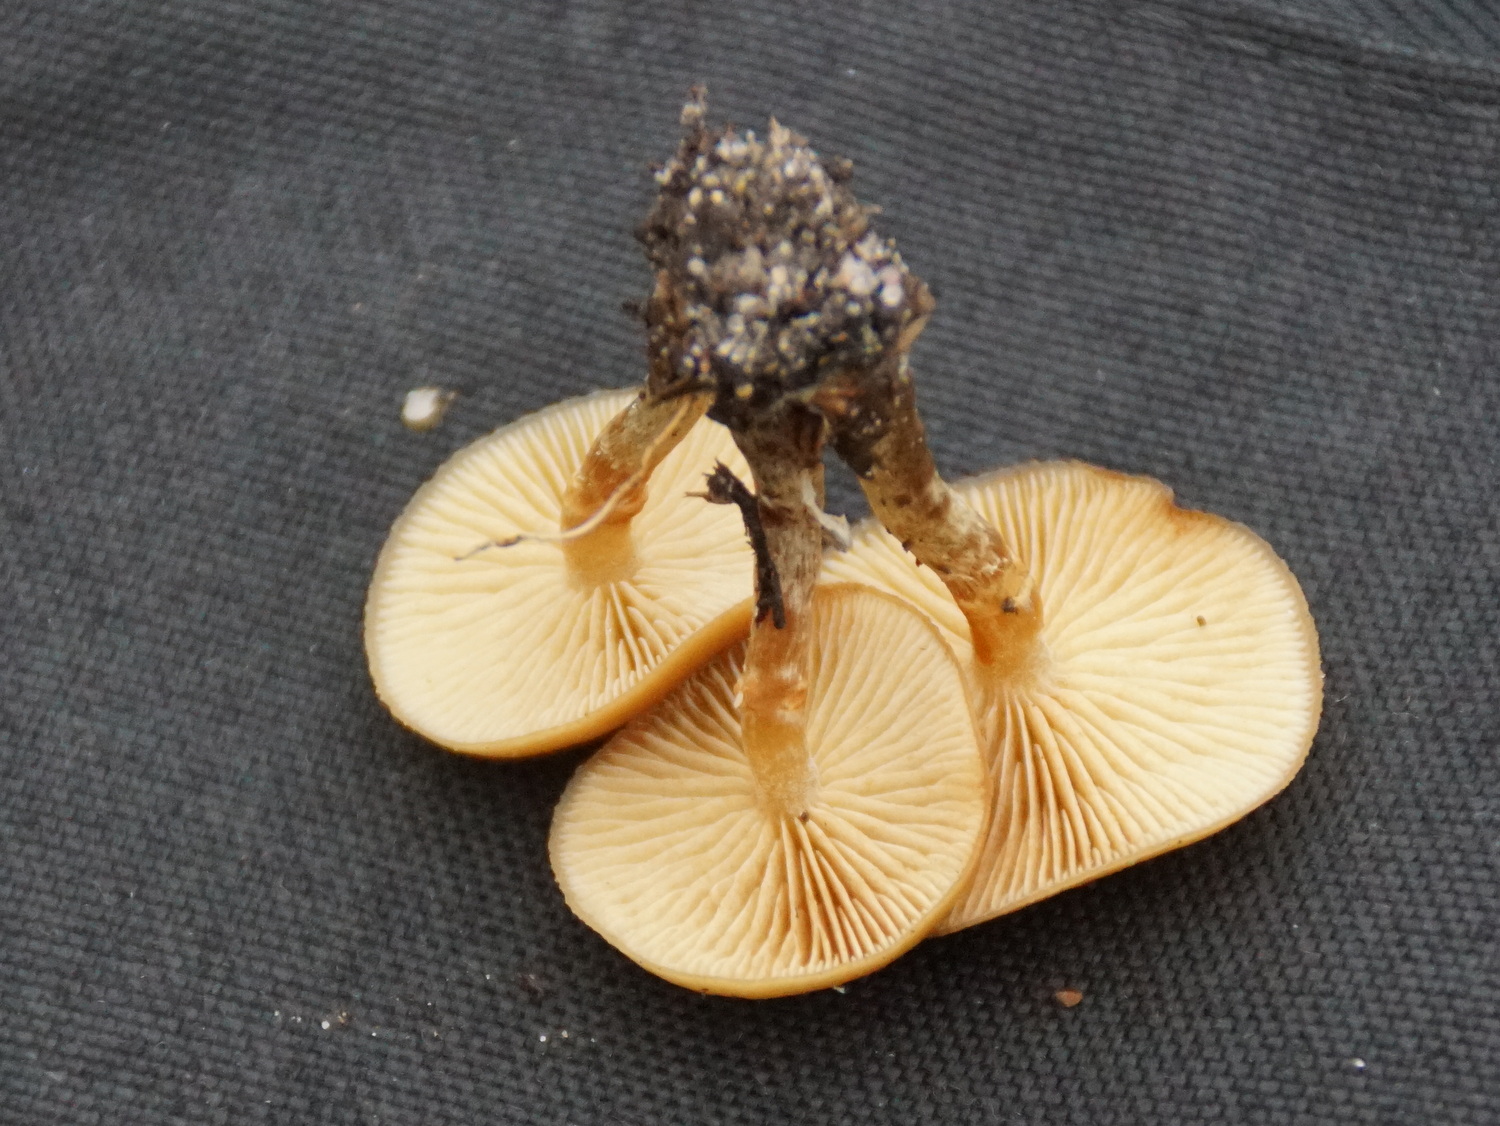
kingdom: Fungi
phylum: Basidiomycota
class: Agaricomycetes
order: Agaricales
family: Hymenogastraceae
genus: Galerina
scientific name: Galerina
